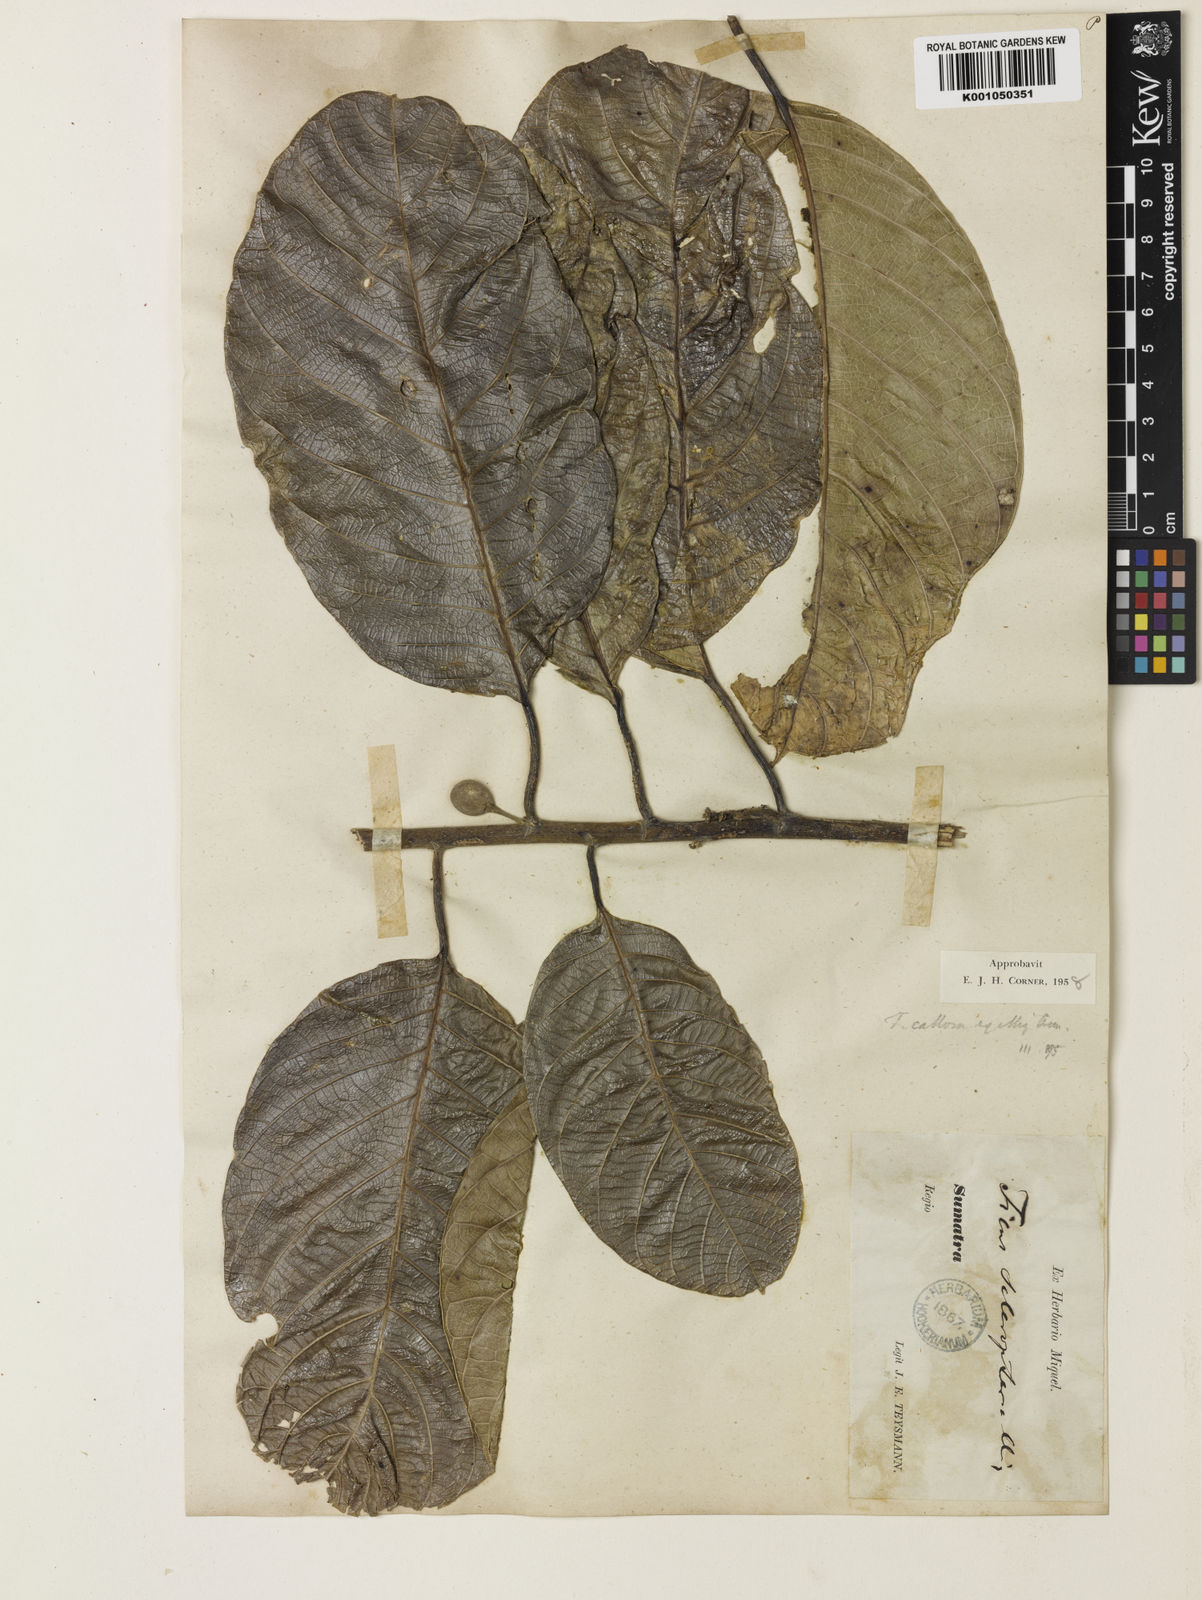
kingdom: Plantae
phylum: Tracheophyta
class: Magnoliopsida
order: Rosales
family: Moraceae
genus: Ficus
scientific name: Ficus callosa
